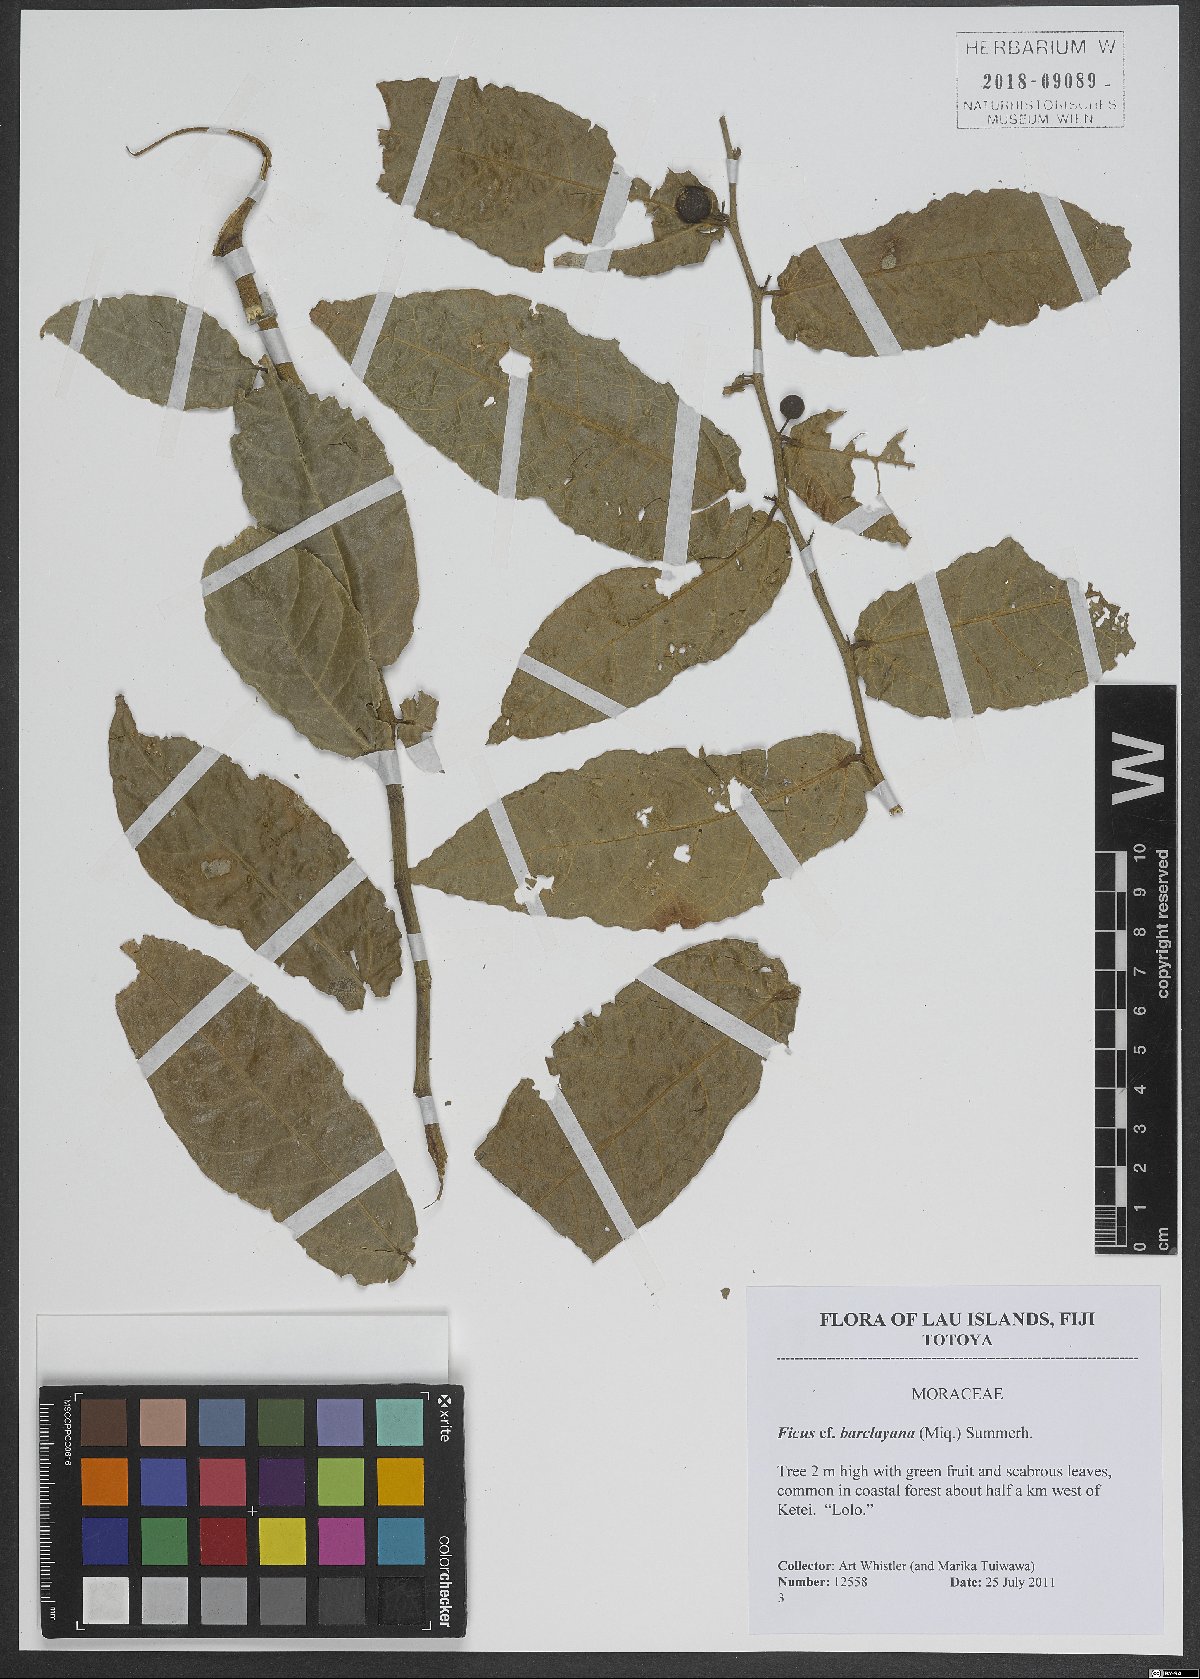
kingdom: Plantae
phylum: Tracheophyta
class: Magnoliopsida
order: Rosales
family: Moraceae
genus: Ficus
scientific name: Ficus barclayana
